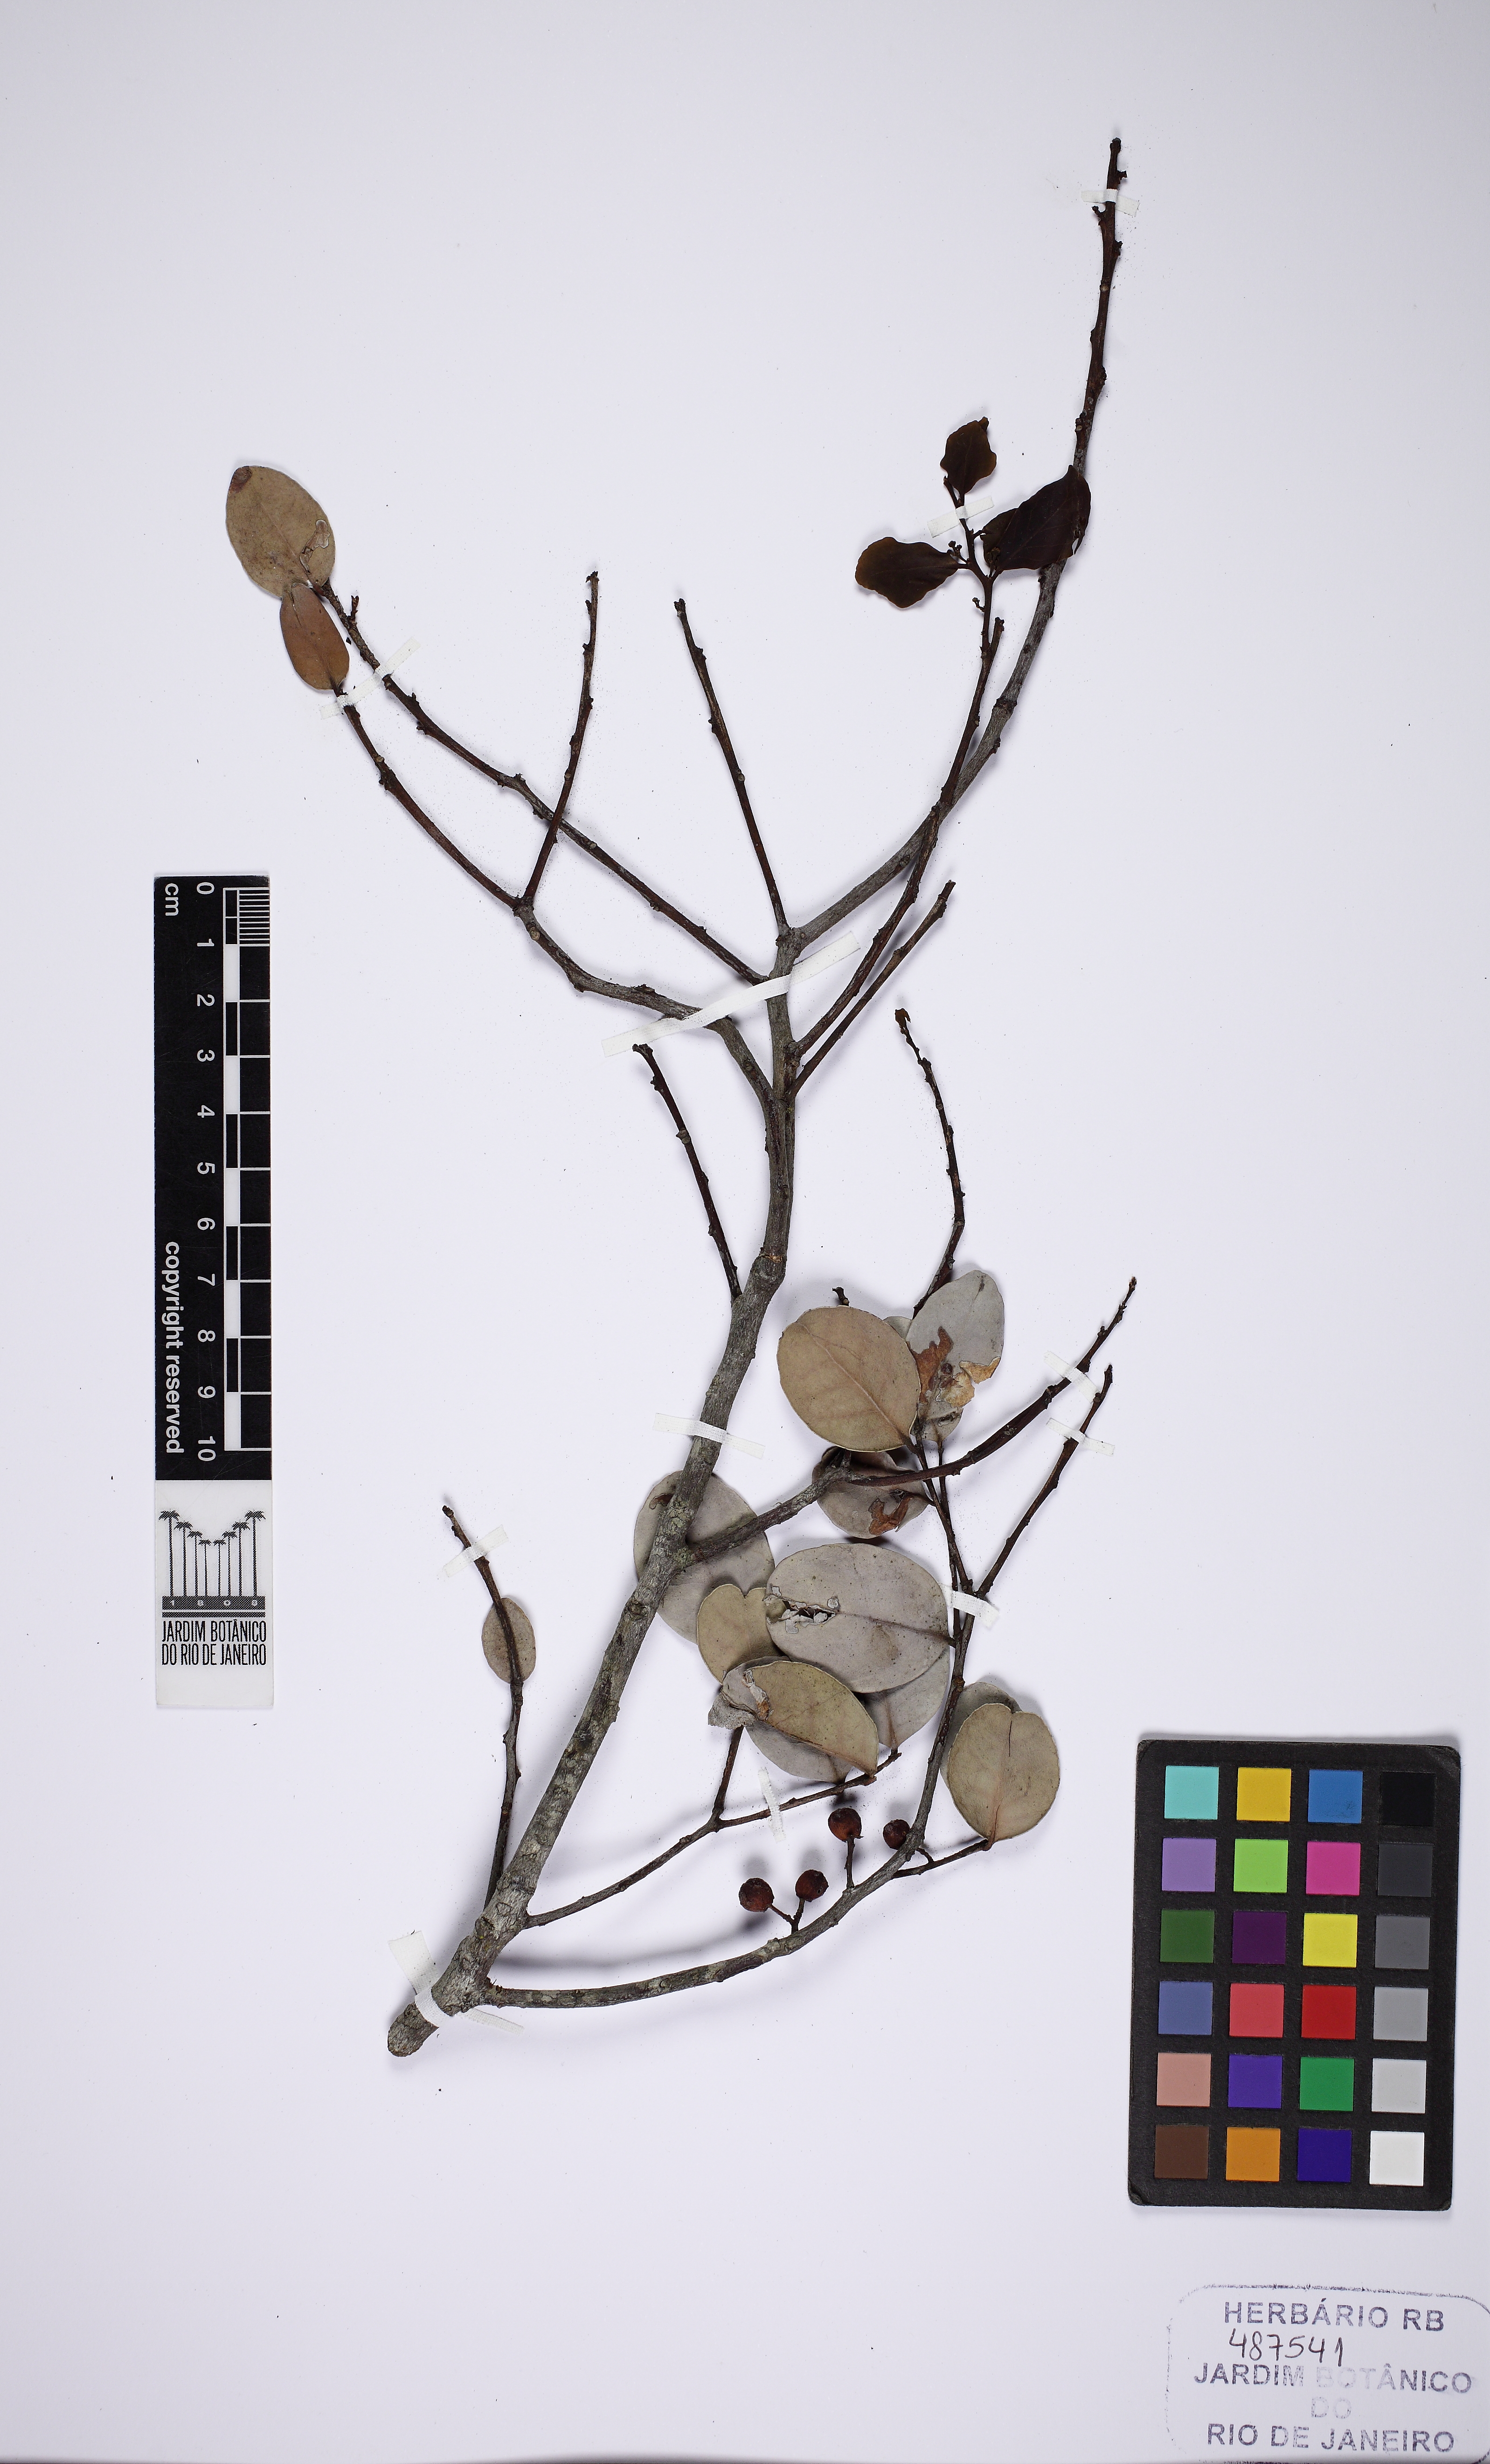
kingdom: Plantae
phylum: Tracheophyta
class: Magnoliopsida
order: Celastrales
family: Celastraceae
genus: Monteverdia
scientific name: Monteverdia obtusifolia
